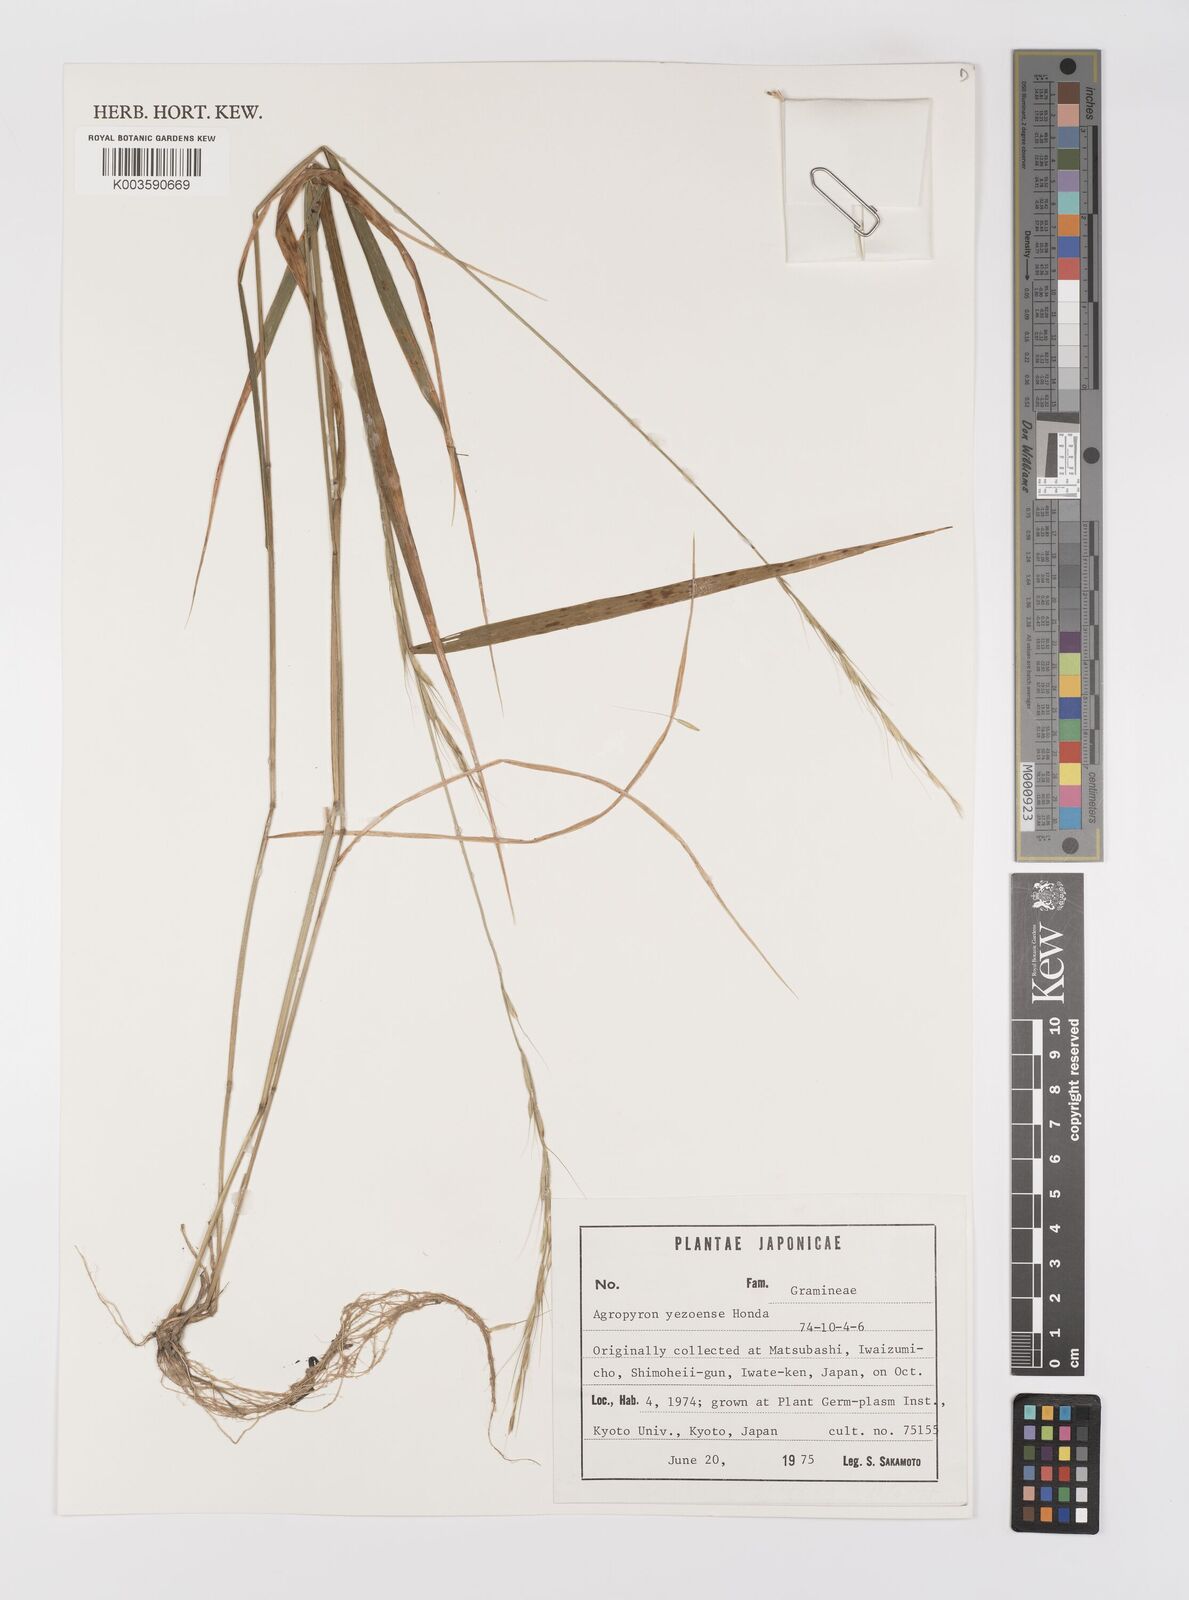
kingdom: Plantae
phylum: Tracheophyta
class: Liliopsida
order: Poales
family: Poaceae
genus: Elymus
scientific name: Elymus nipponicus
